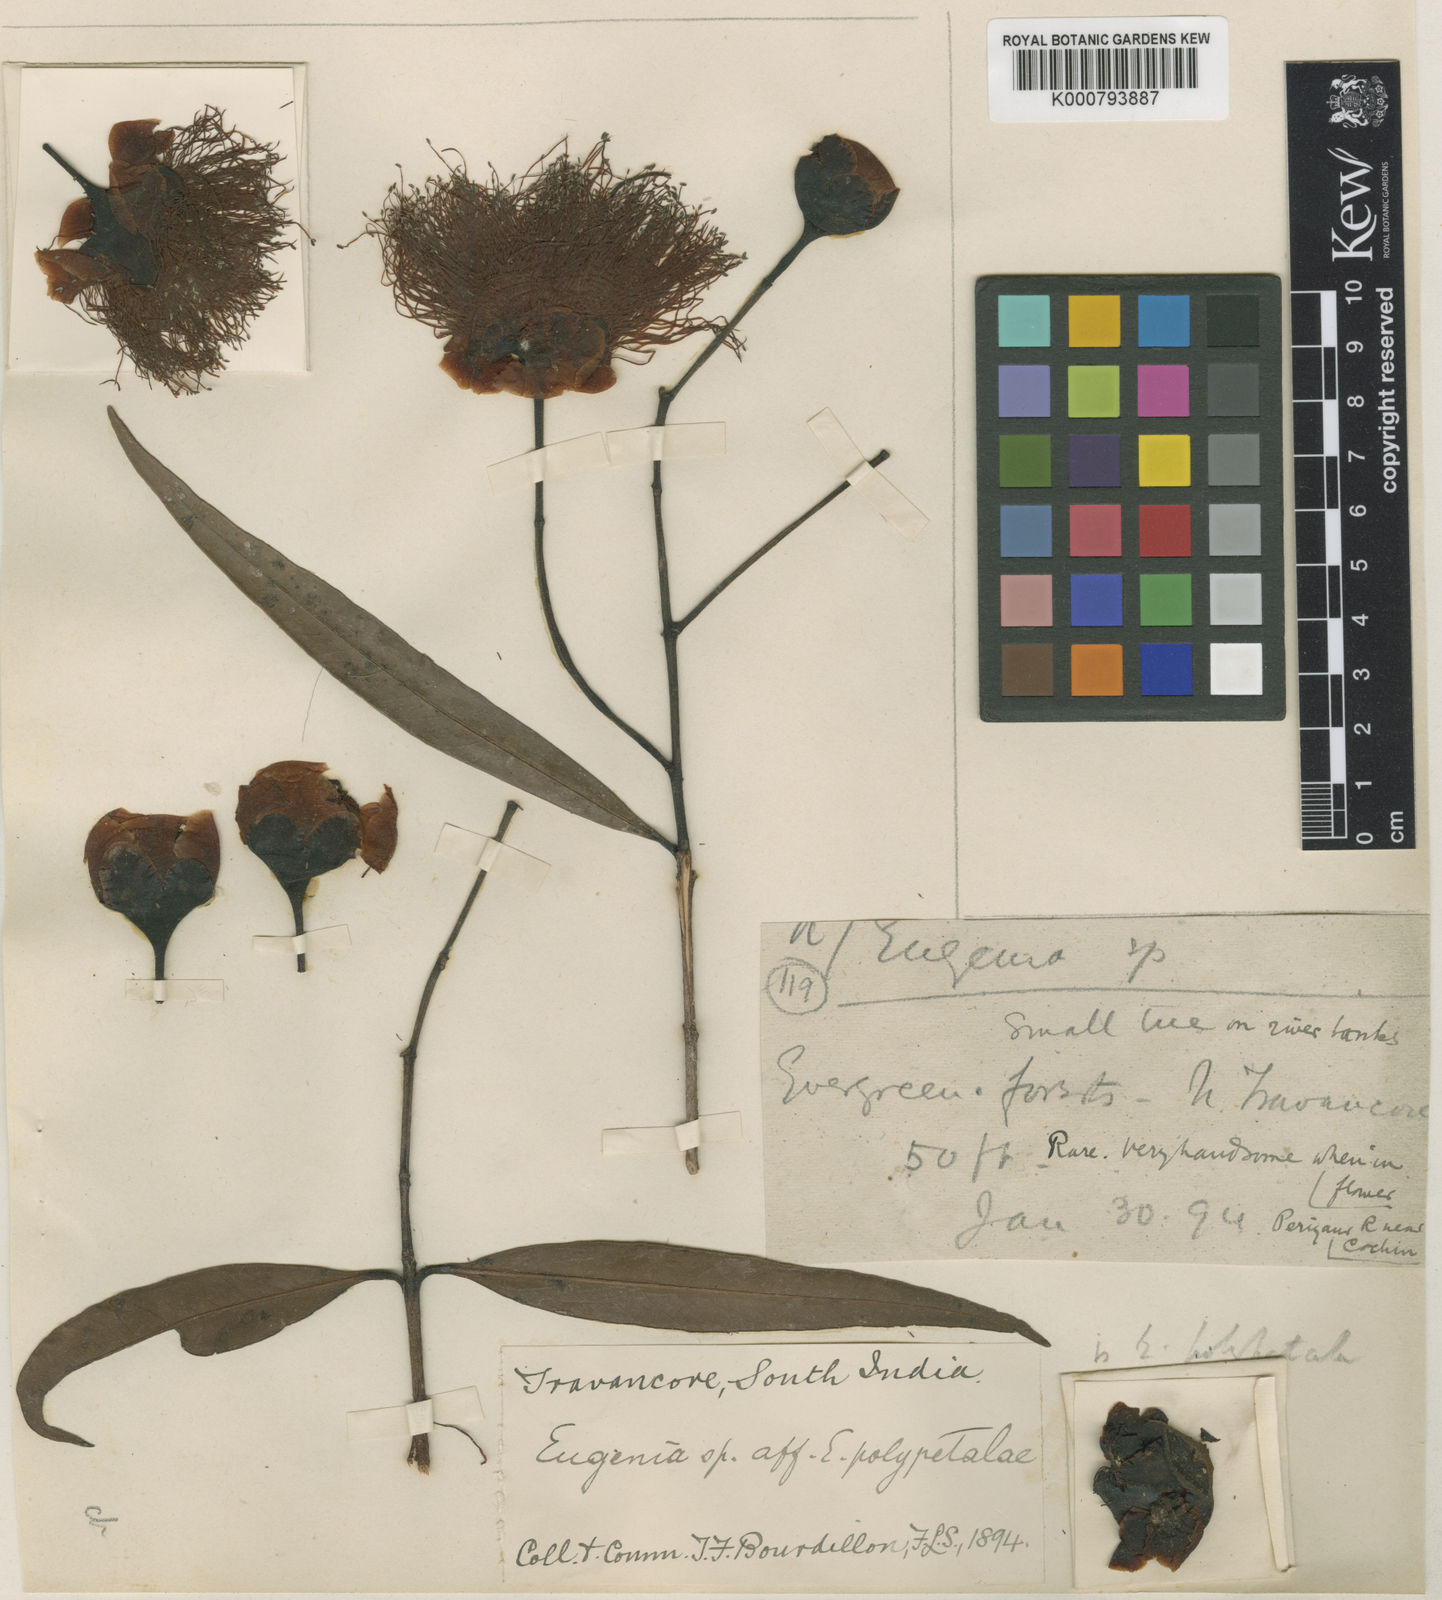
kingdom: Plantae
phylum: Tracheophyta
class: Magnoliopsida
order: Myrtales
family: Myrtaceae
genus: Syzygium
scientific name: Syzygium occidentale
